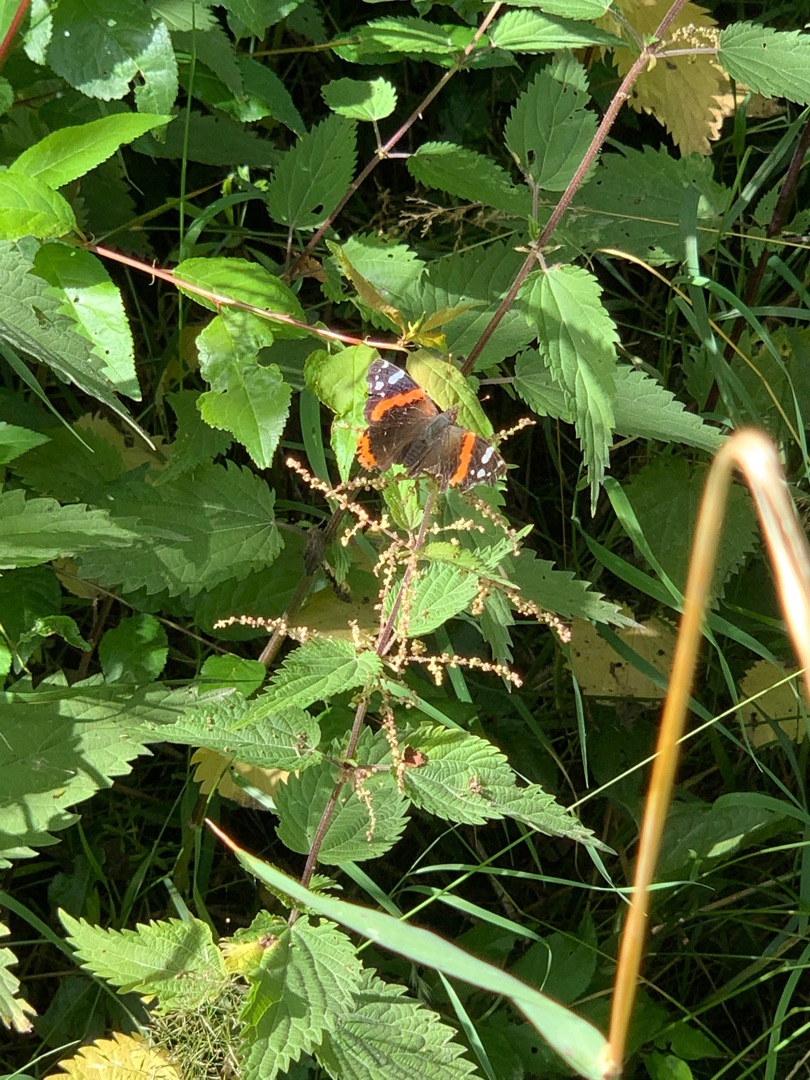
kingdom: Animalia
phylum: Arthropoda
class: Insecta
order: Lepidoptera
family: Nymphalidae
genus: Vanessa
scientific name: Vanessa atalanta
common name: Admiral
